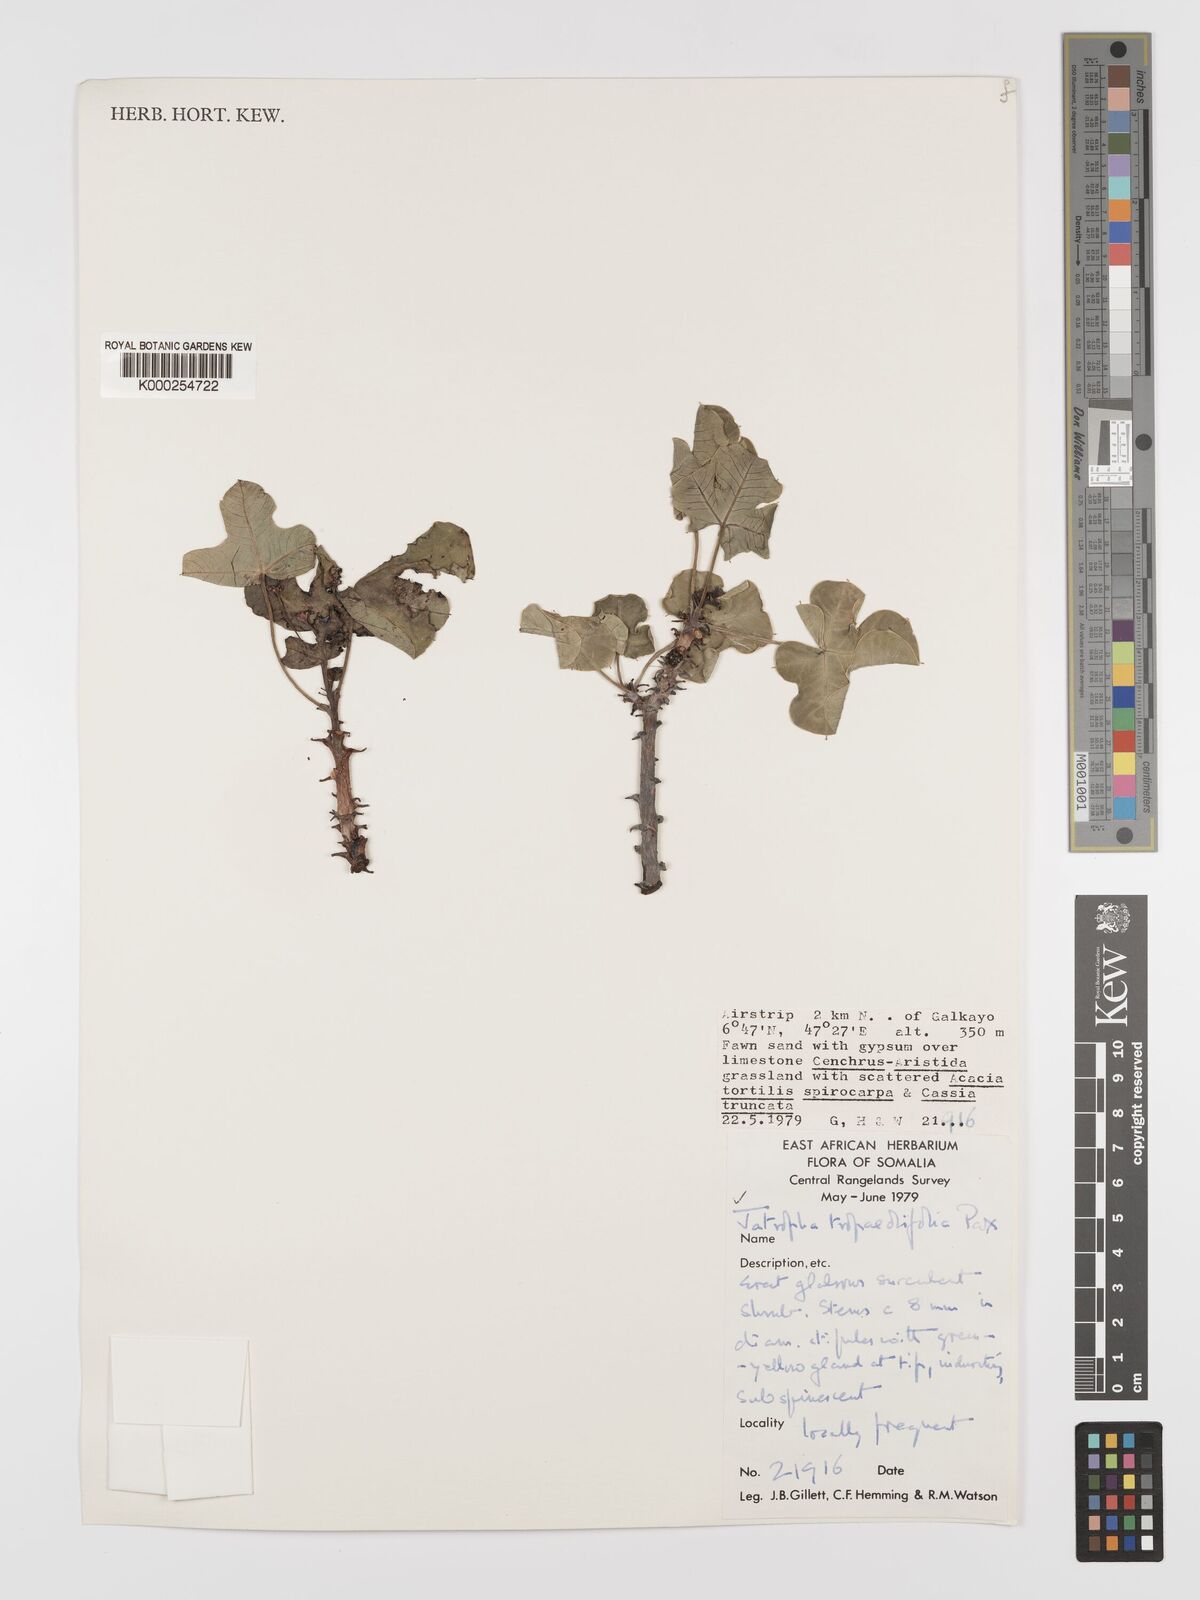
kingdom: Plantae
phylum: Tracheophyta
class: Magnoliopsida
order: Malpighiales
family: Euphorbiaceae
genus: Jatropha
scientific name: Jatropha tropaeolifolia
